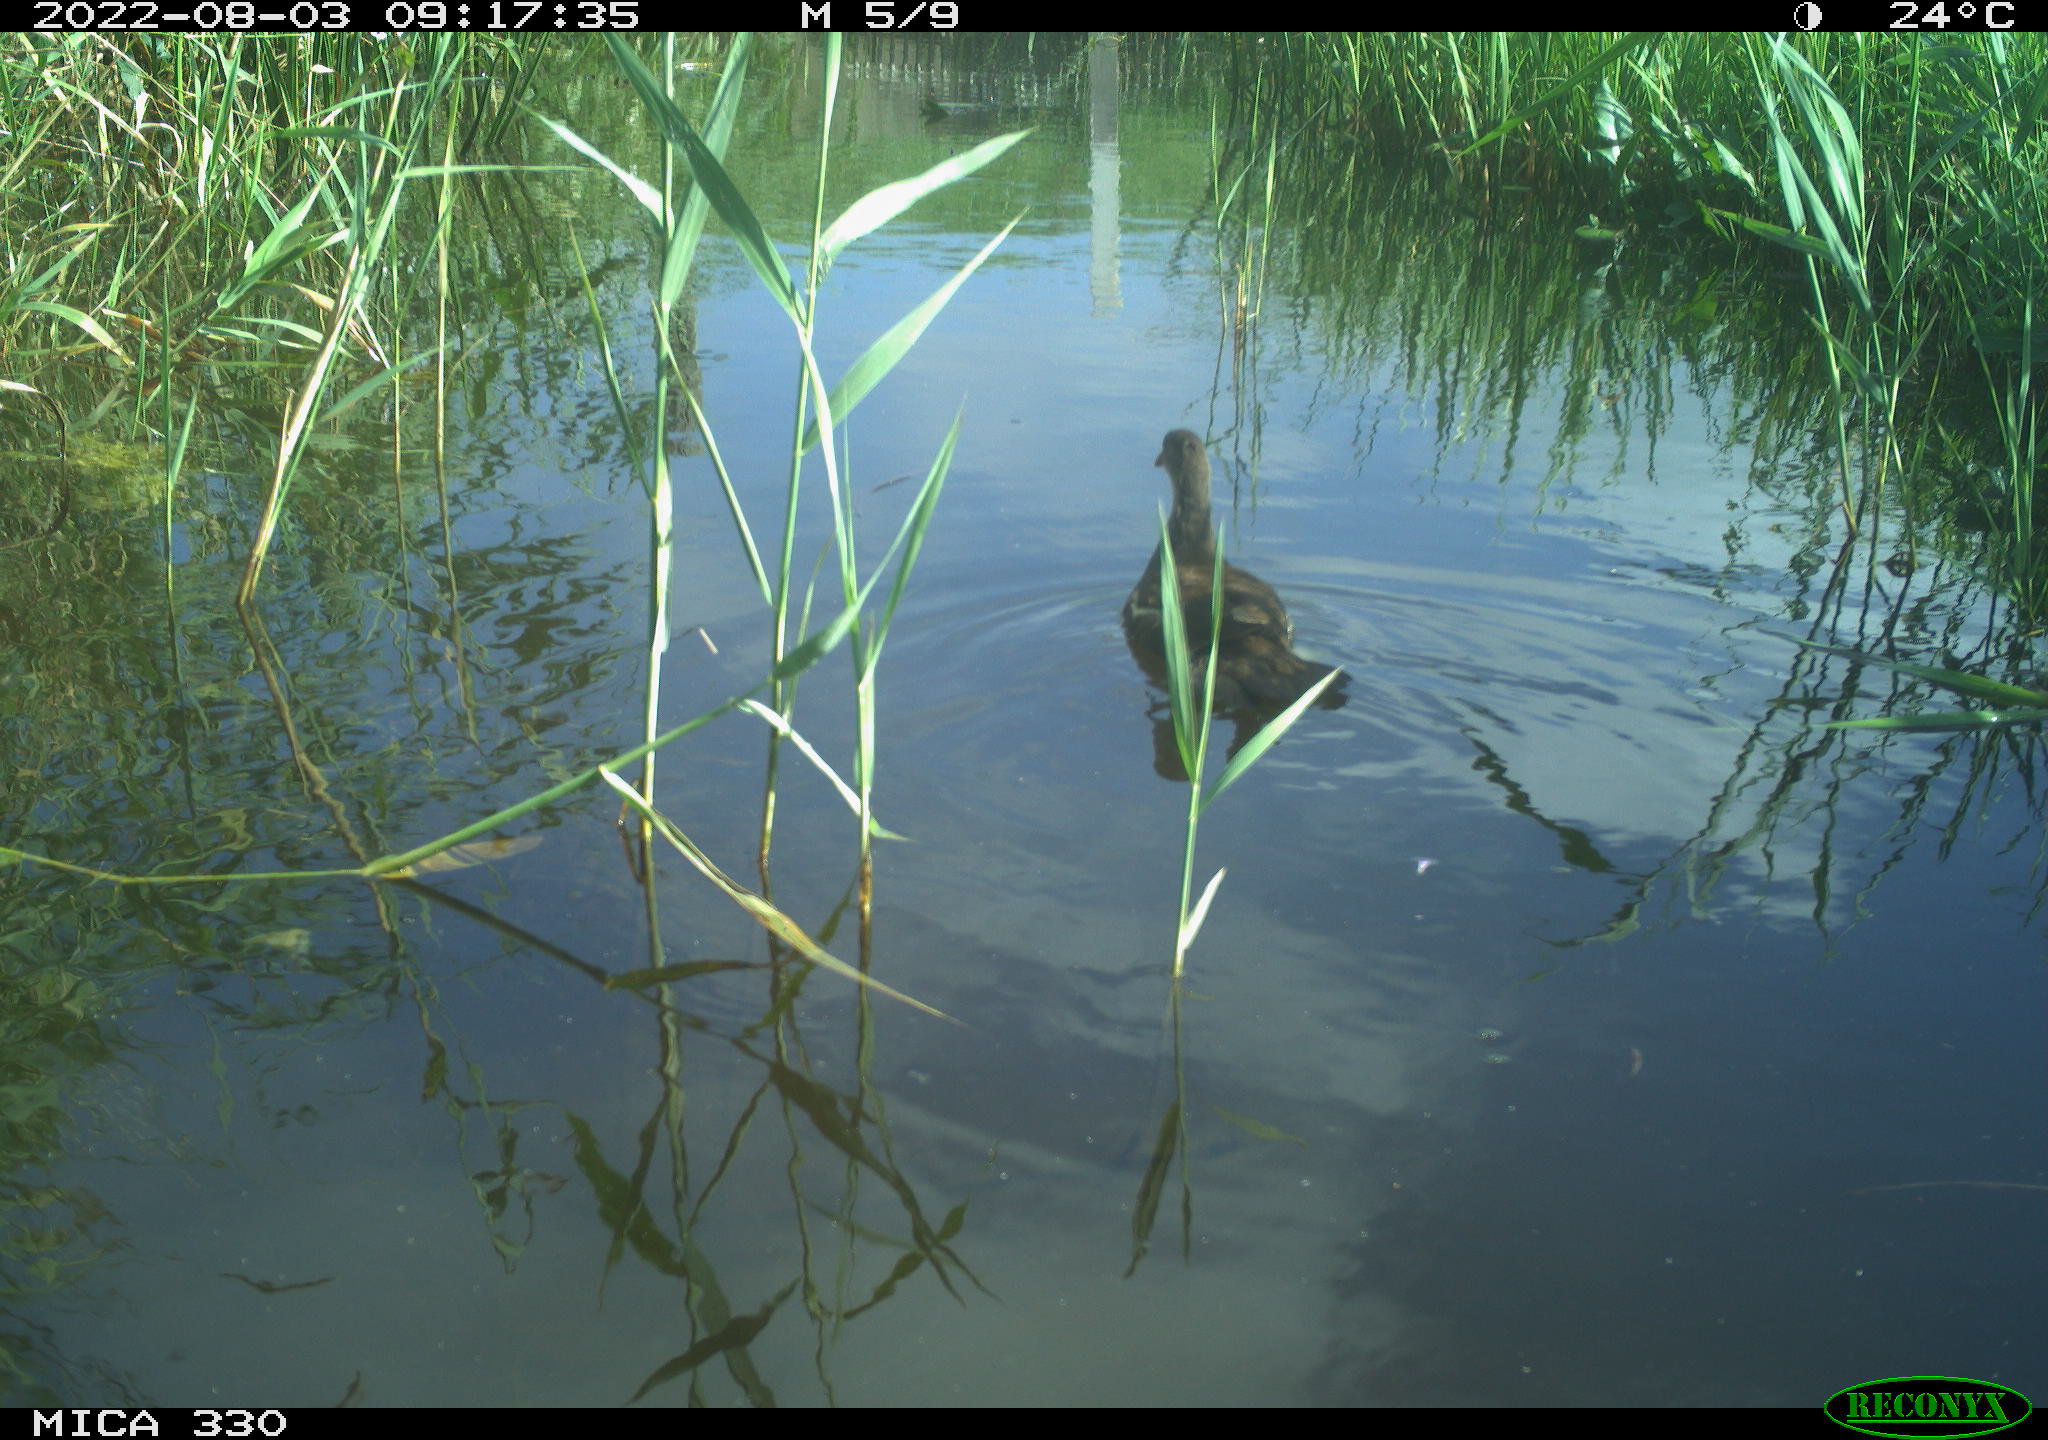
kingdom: Animalia
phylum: Chordata
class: Aves
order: Gruiformes
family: Rallidae
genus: Gallinula
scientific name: Gallinula chloropus
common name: Common moorhen
